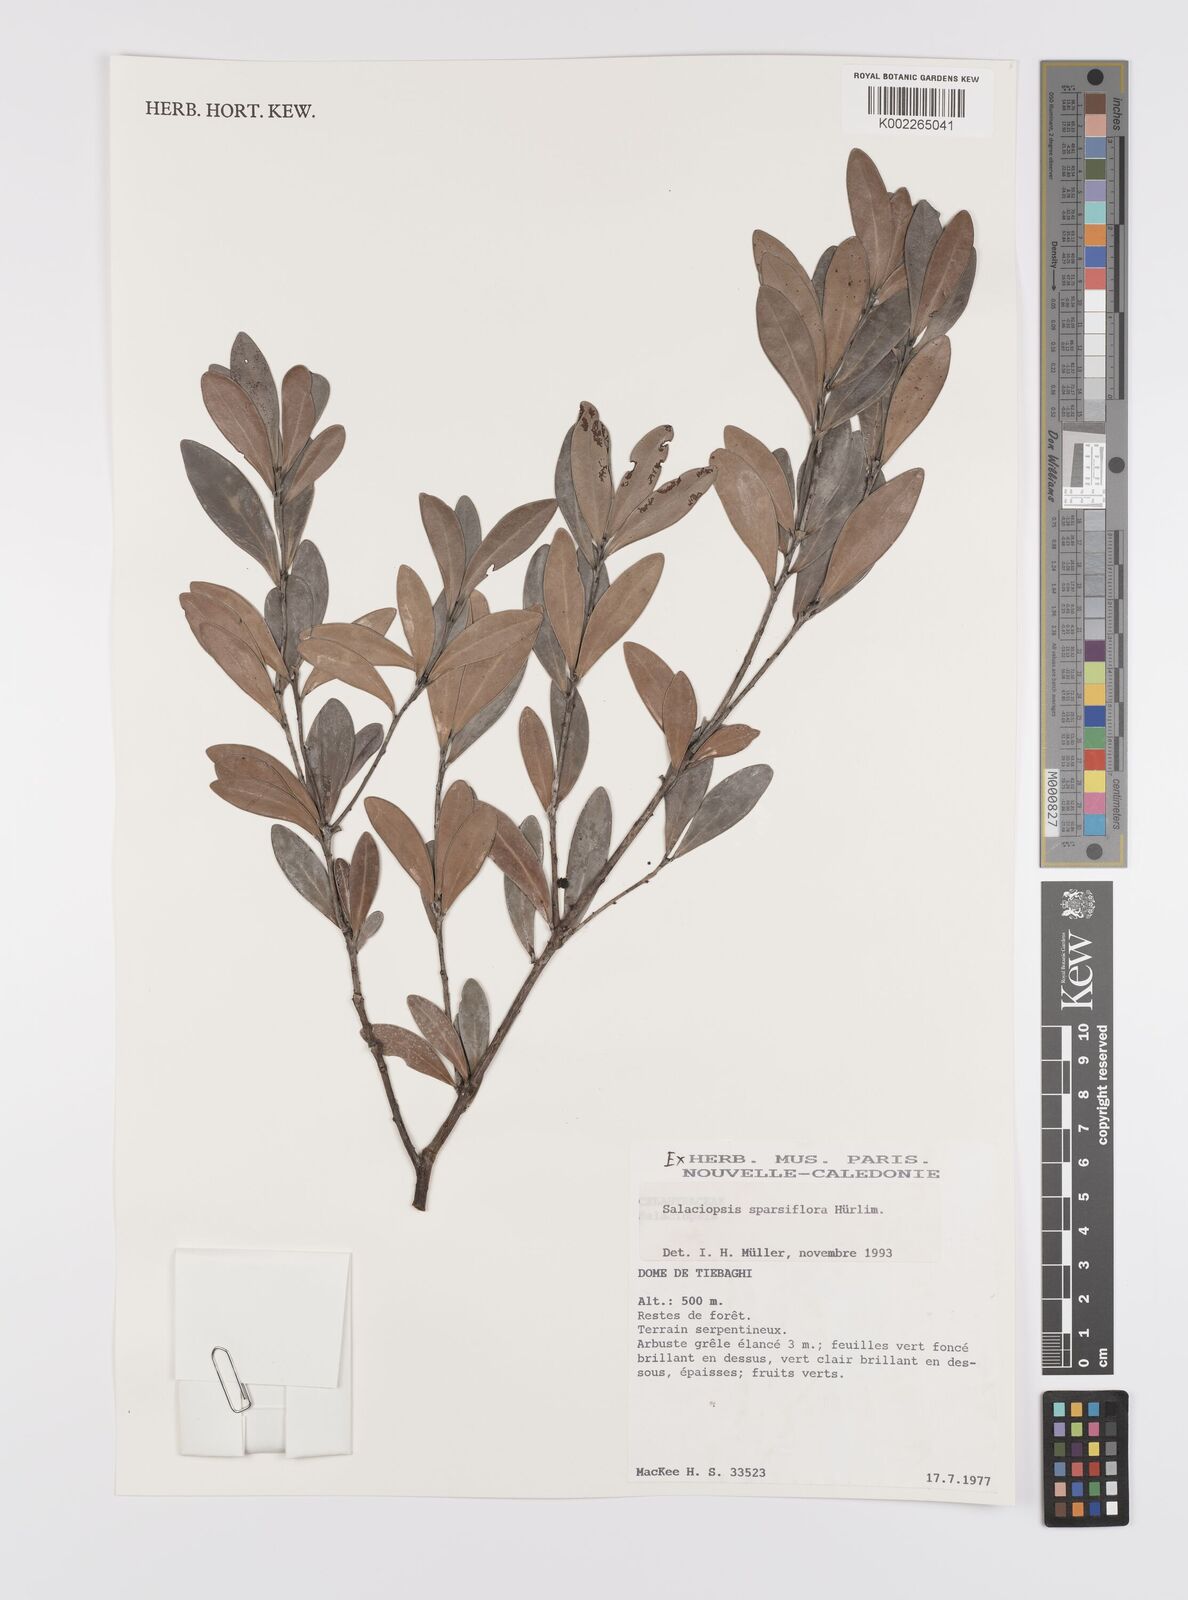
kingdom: Plantae
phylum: Tracheophyta
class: Magnoliopsida
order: Celastrales
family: Celastraceae
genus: Salaciopsis
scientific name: Salaciopsis sparsiflora
